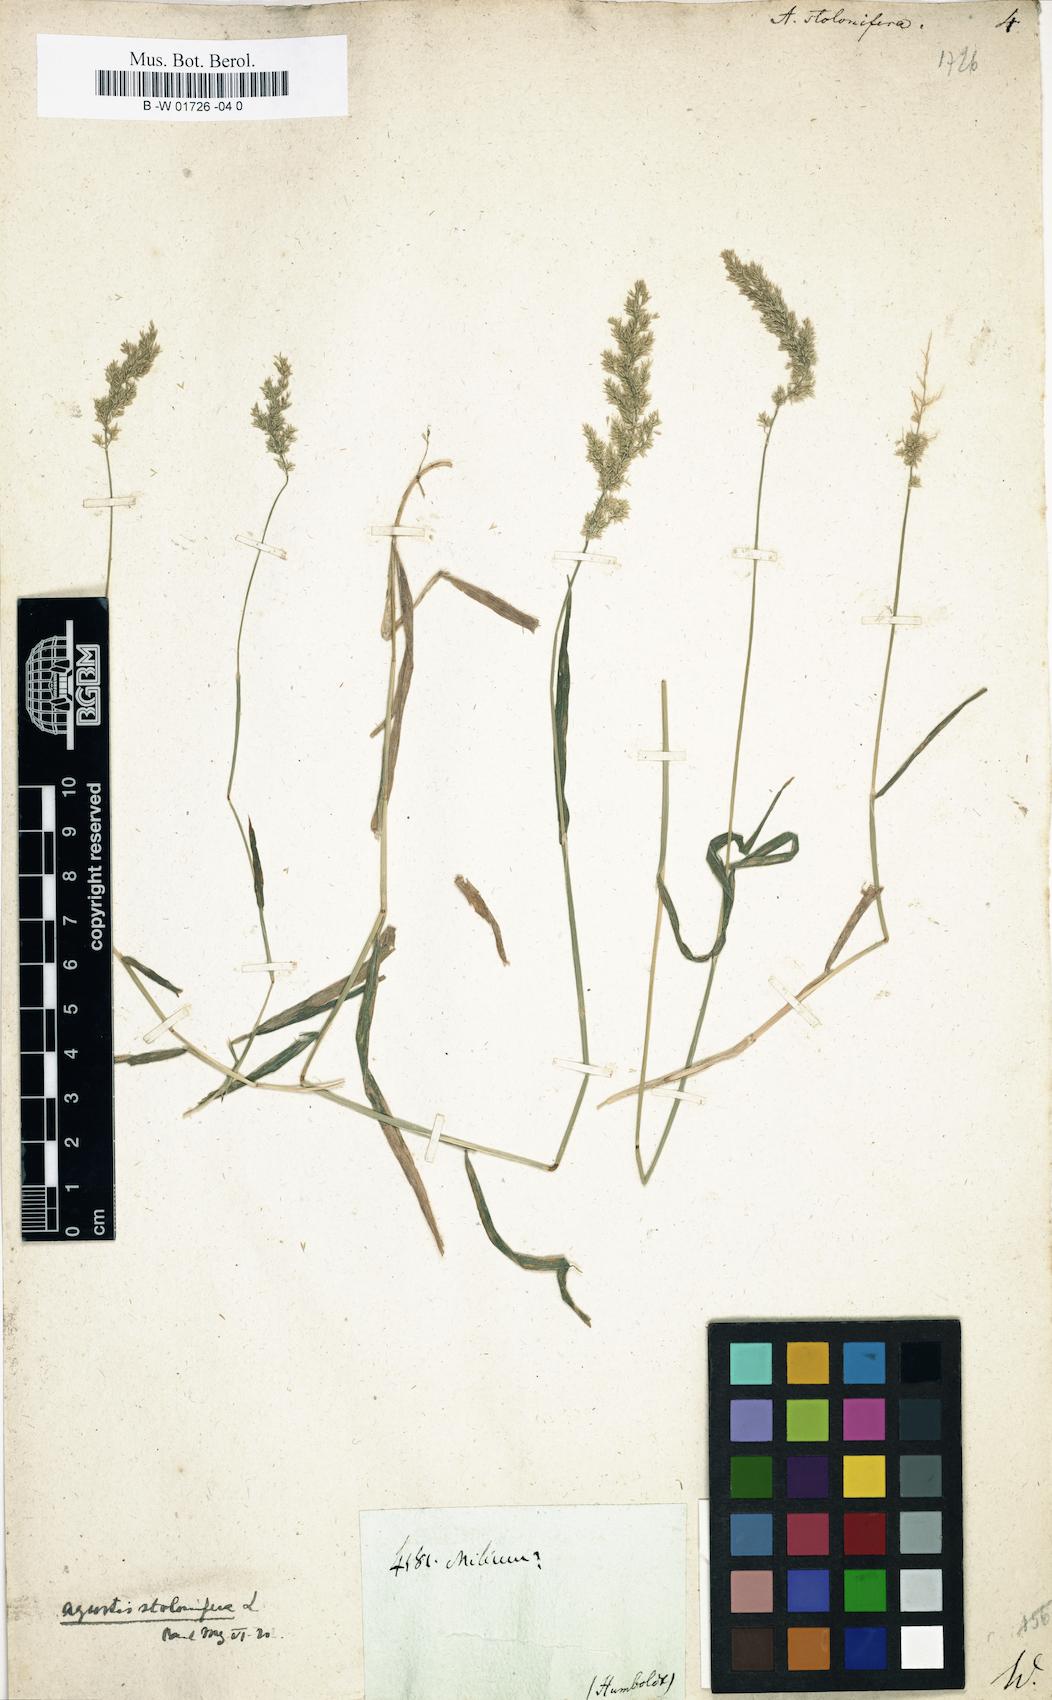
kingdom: Plantae
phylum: Tracheophyta
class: Liliopsida
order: Poales
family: Poaceae
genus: Agrostis
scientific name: Agrostis stolonifera
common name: Creeping bentgrass
